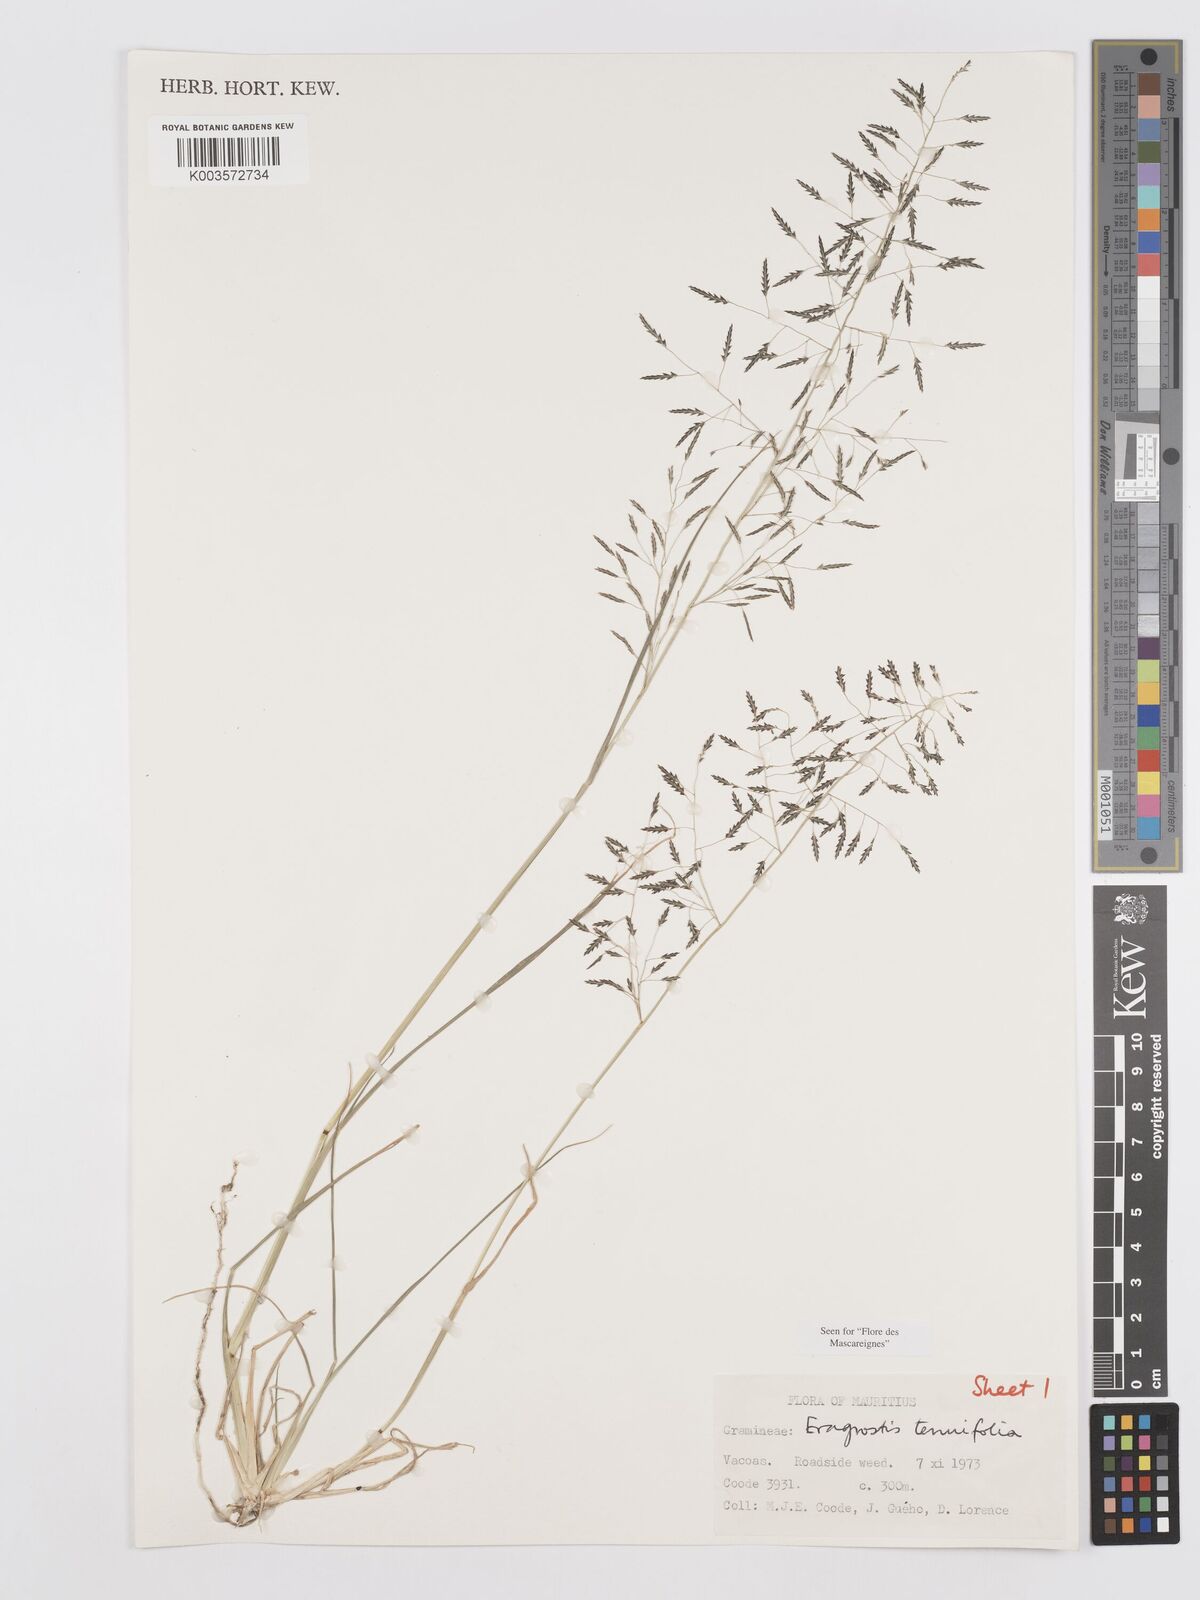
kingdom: Plantae
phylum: Tracheophyta
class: Liliopsida
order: Poales
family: Poaceae
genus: Eragrostis
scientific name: Eragrostis tenuifolia
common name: Elastic grass
